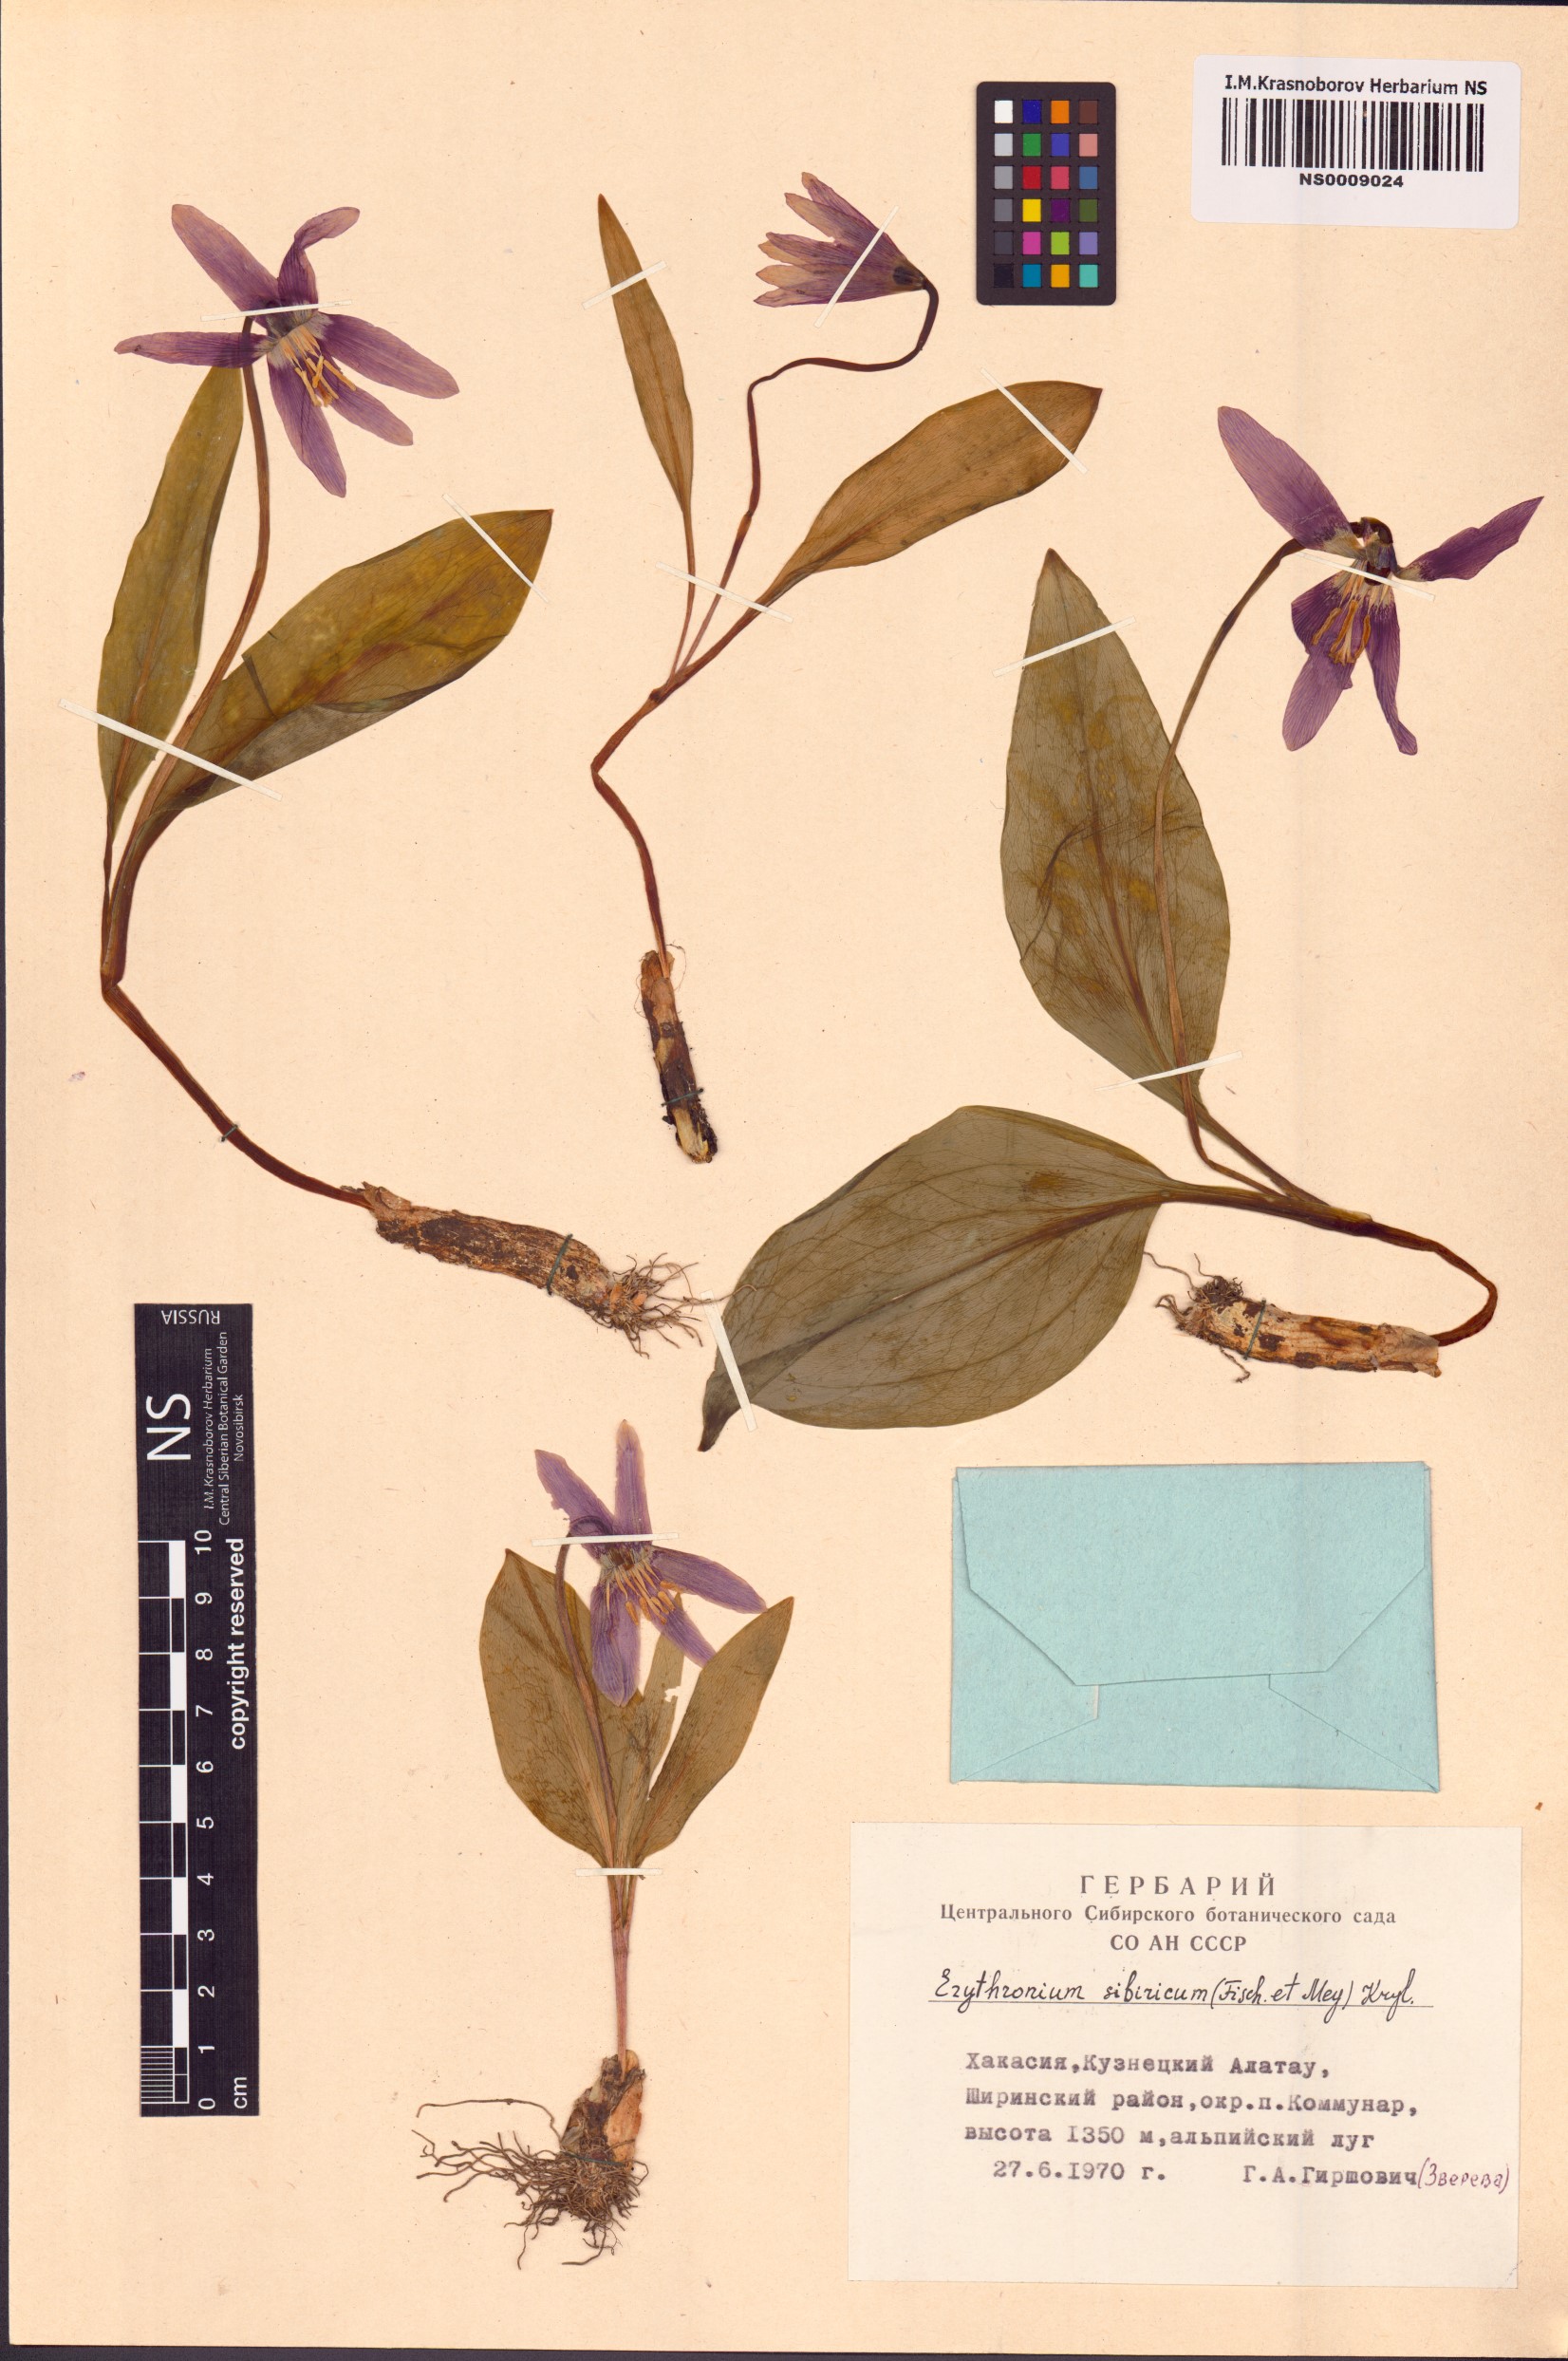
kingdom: Plantae
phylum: Tracheophyta
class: Liliopsida
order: Liliales
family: Liliaceae
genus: Erythronium
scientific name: Erythronium sibiricum
